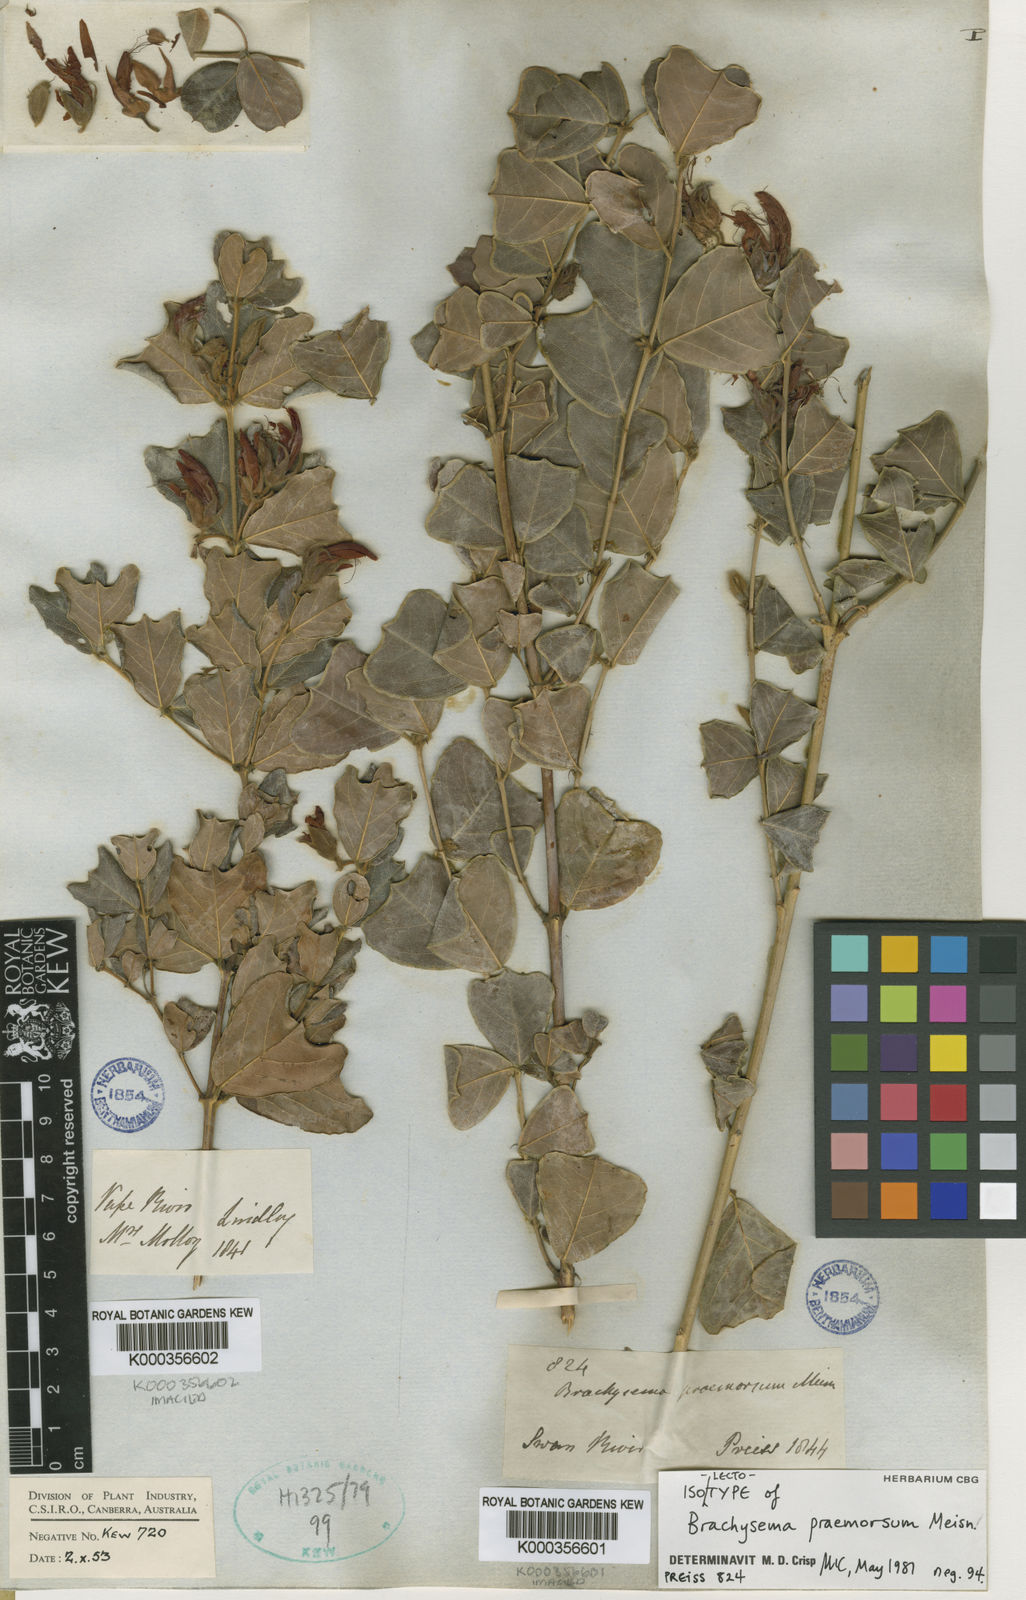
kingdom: Plantae
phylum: Tracheophyta
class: Magnoliopsida
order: Fabales
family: Fabaceae
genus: Gastrolobium
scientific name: Gastrolobium praemorsum
